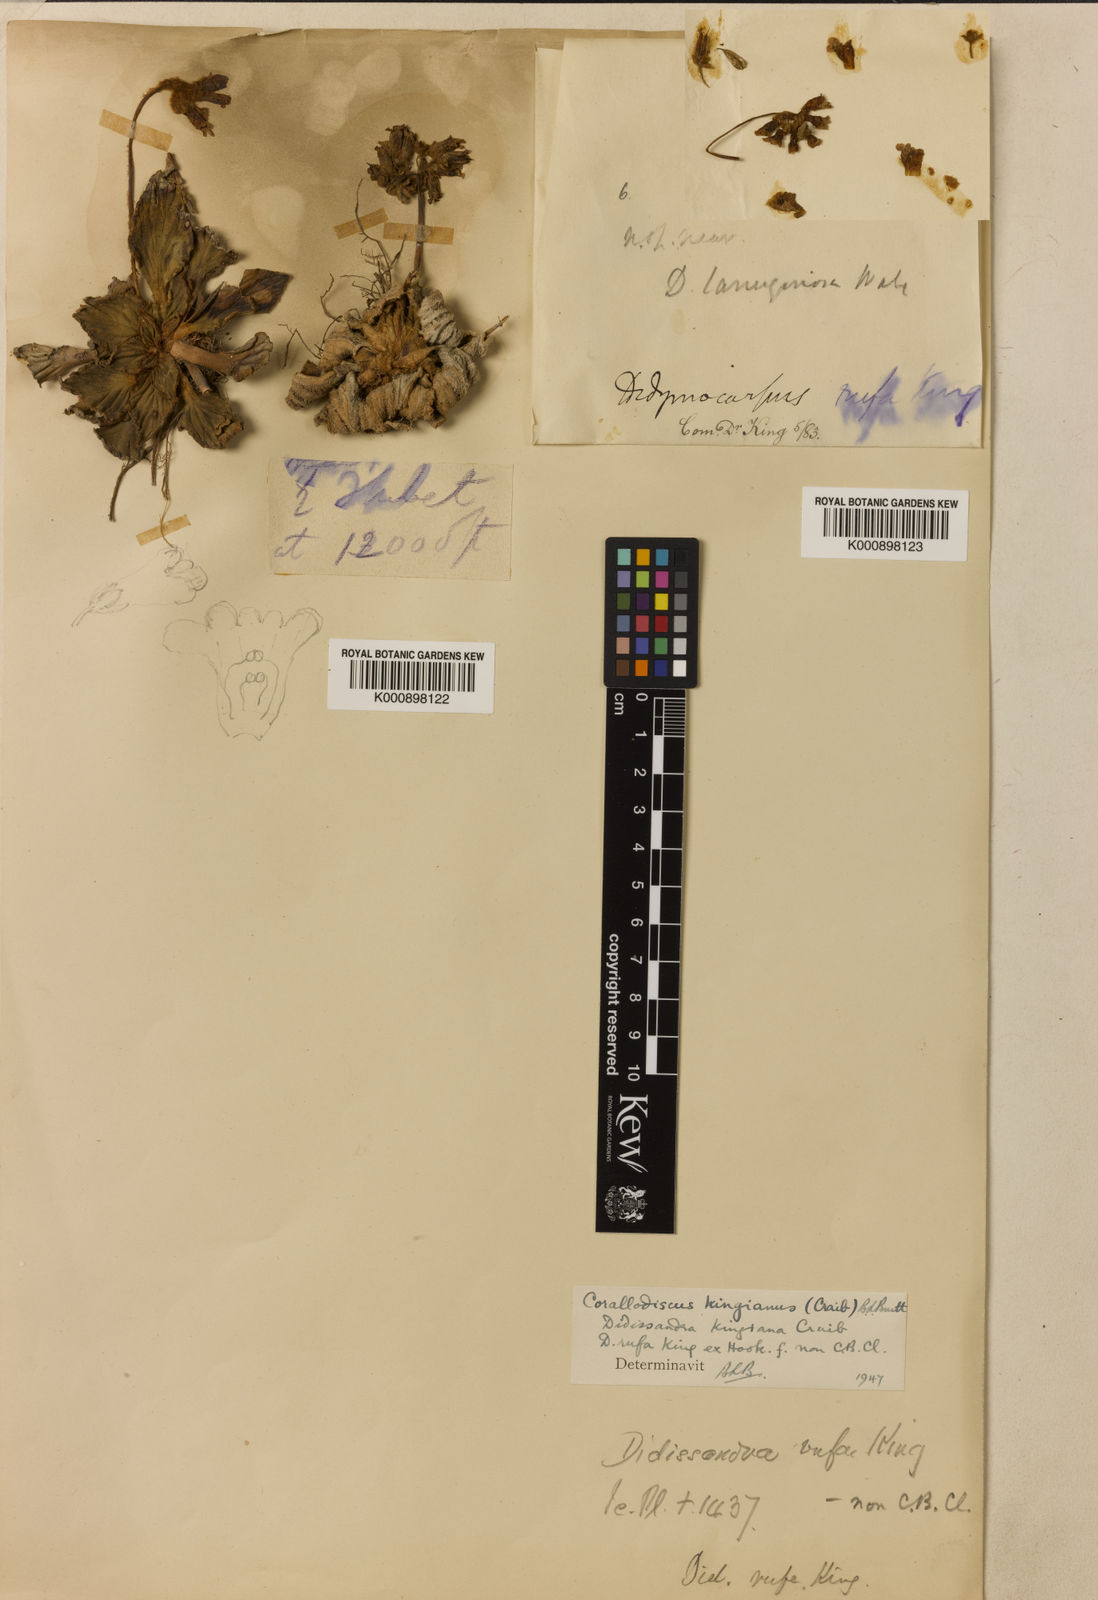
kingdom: Plantae
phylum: Tracheophyta
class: Magnoliopsida
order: Lamiales
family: Gesneriaceae
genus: Corallodiscus
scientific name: Corallodiscus lanuginosus
